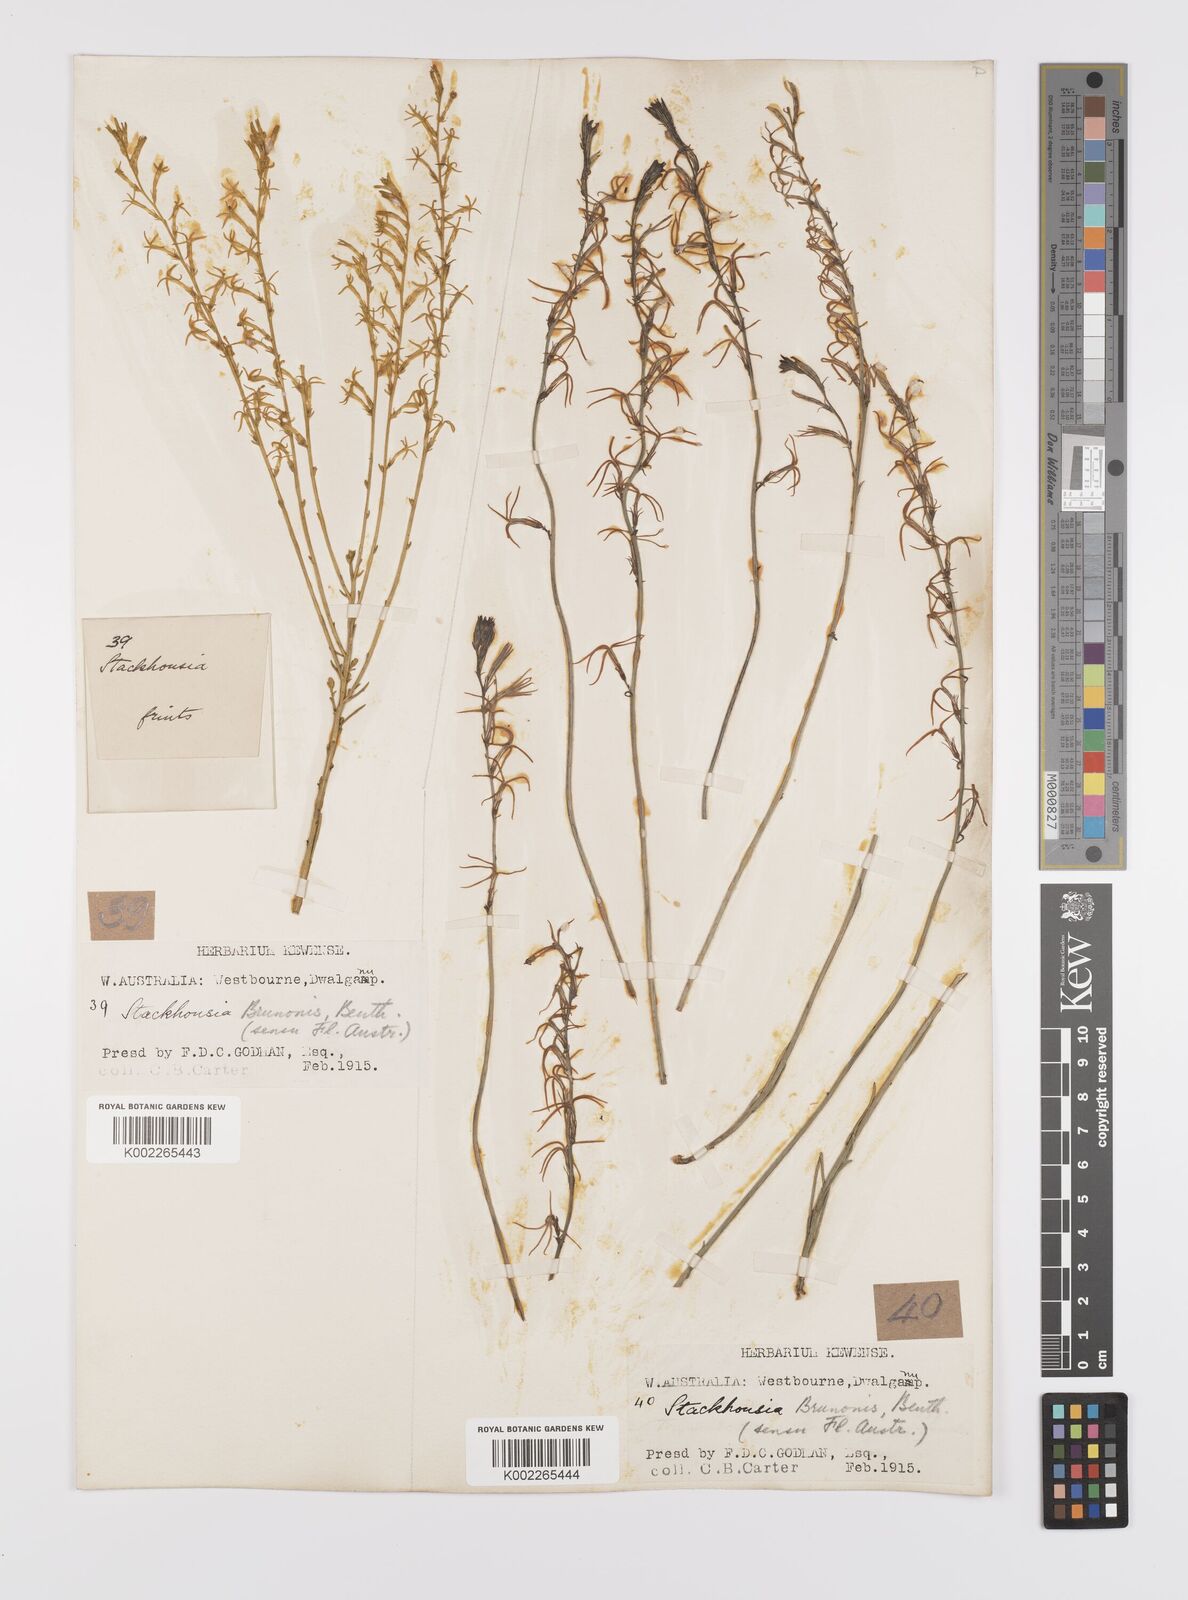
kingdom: Plantae
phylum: Tracheophyta
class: Magnoliopsida
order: Celastrales
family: Celastraceae
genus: Tripterococcus
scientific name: Tripterococcus brunonis
